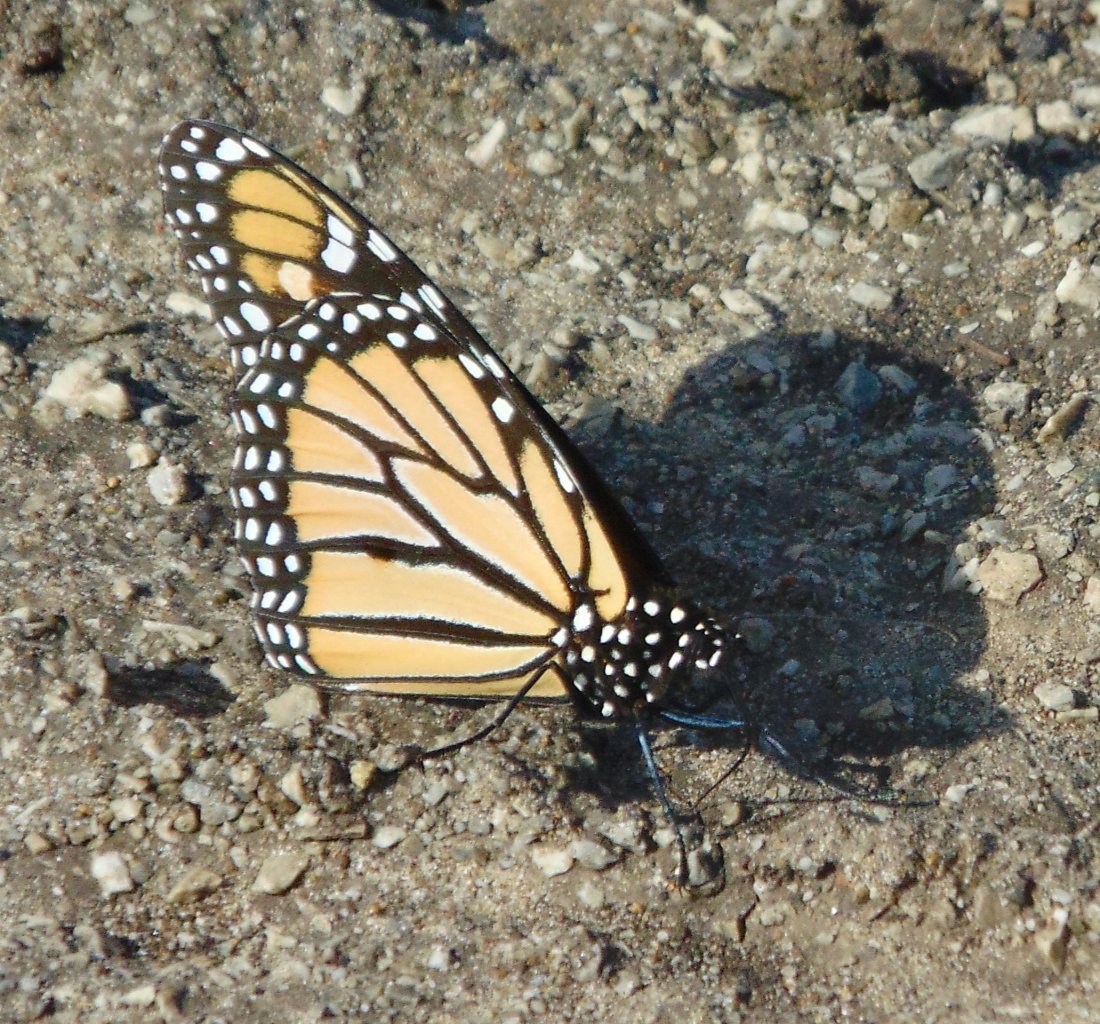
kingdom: Animalia
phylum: Arthropoda
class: Insecta
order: Lepidoptera
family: Nymphalidae
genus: Danaus
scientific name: Danaus plexippus
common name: Monarch
